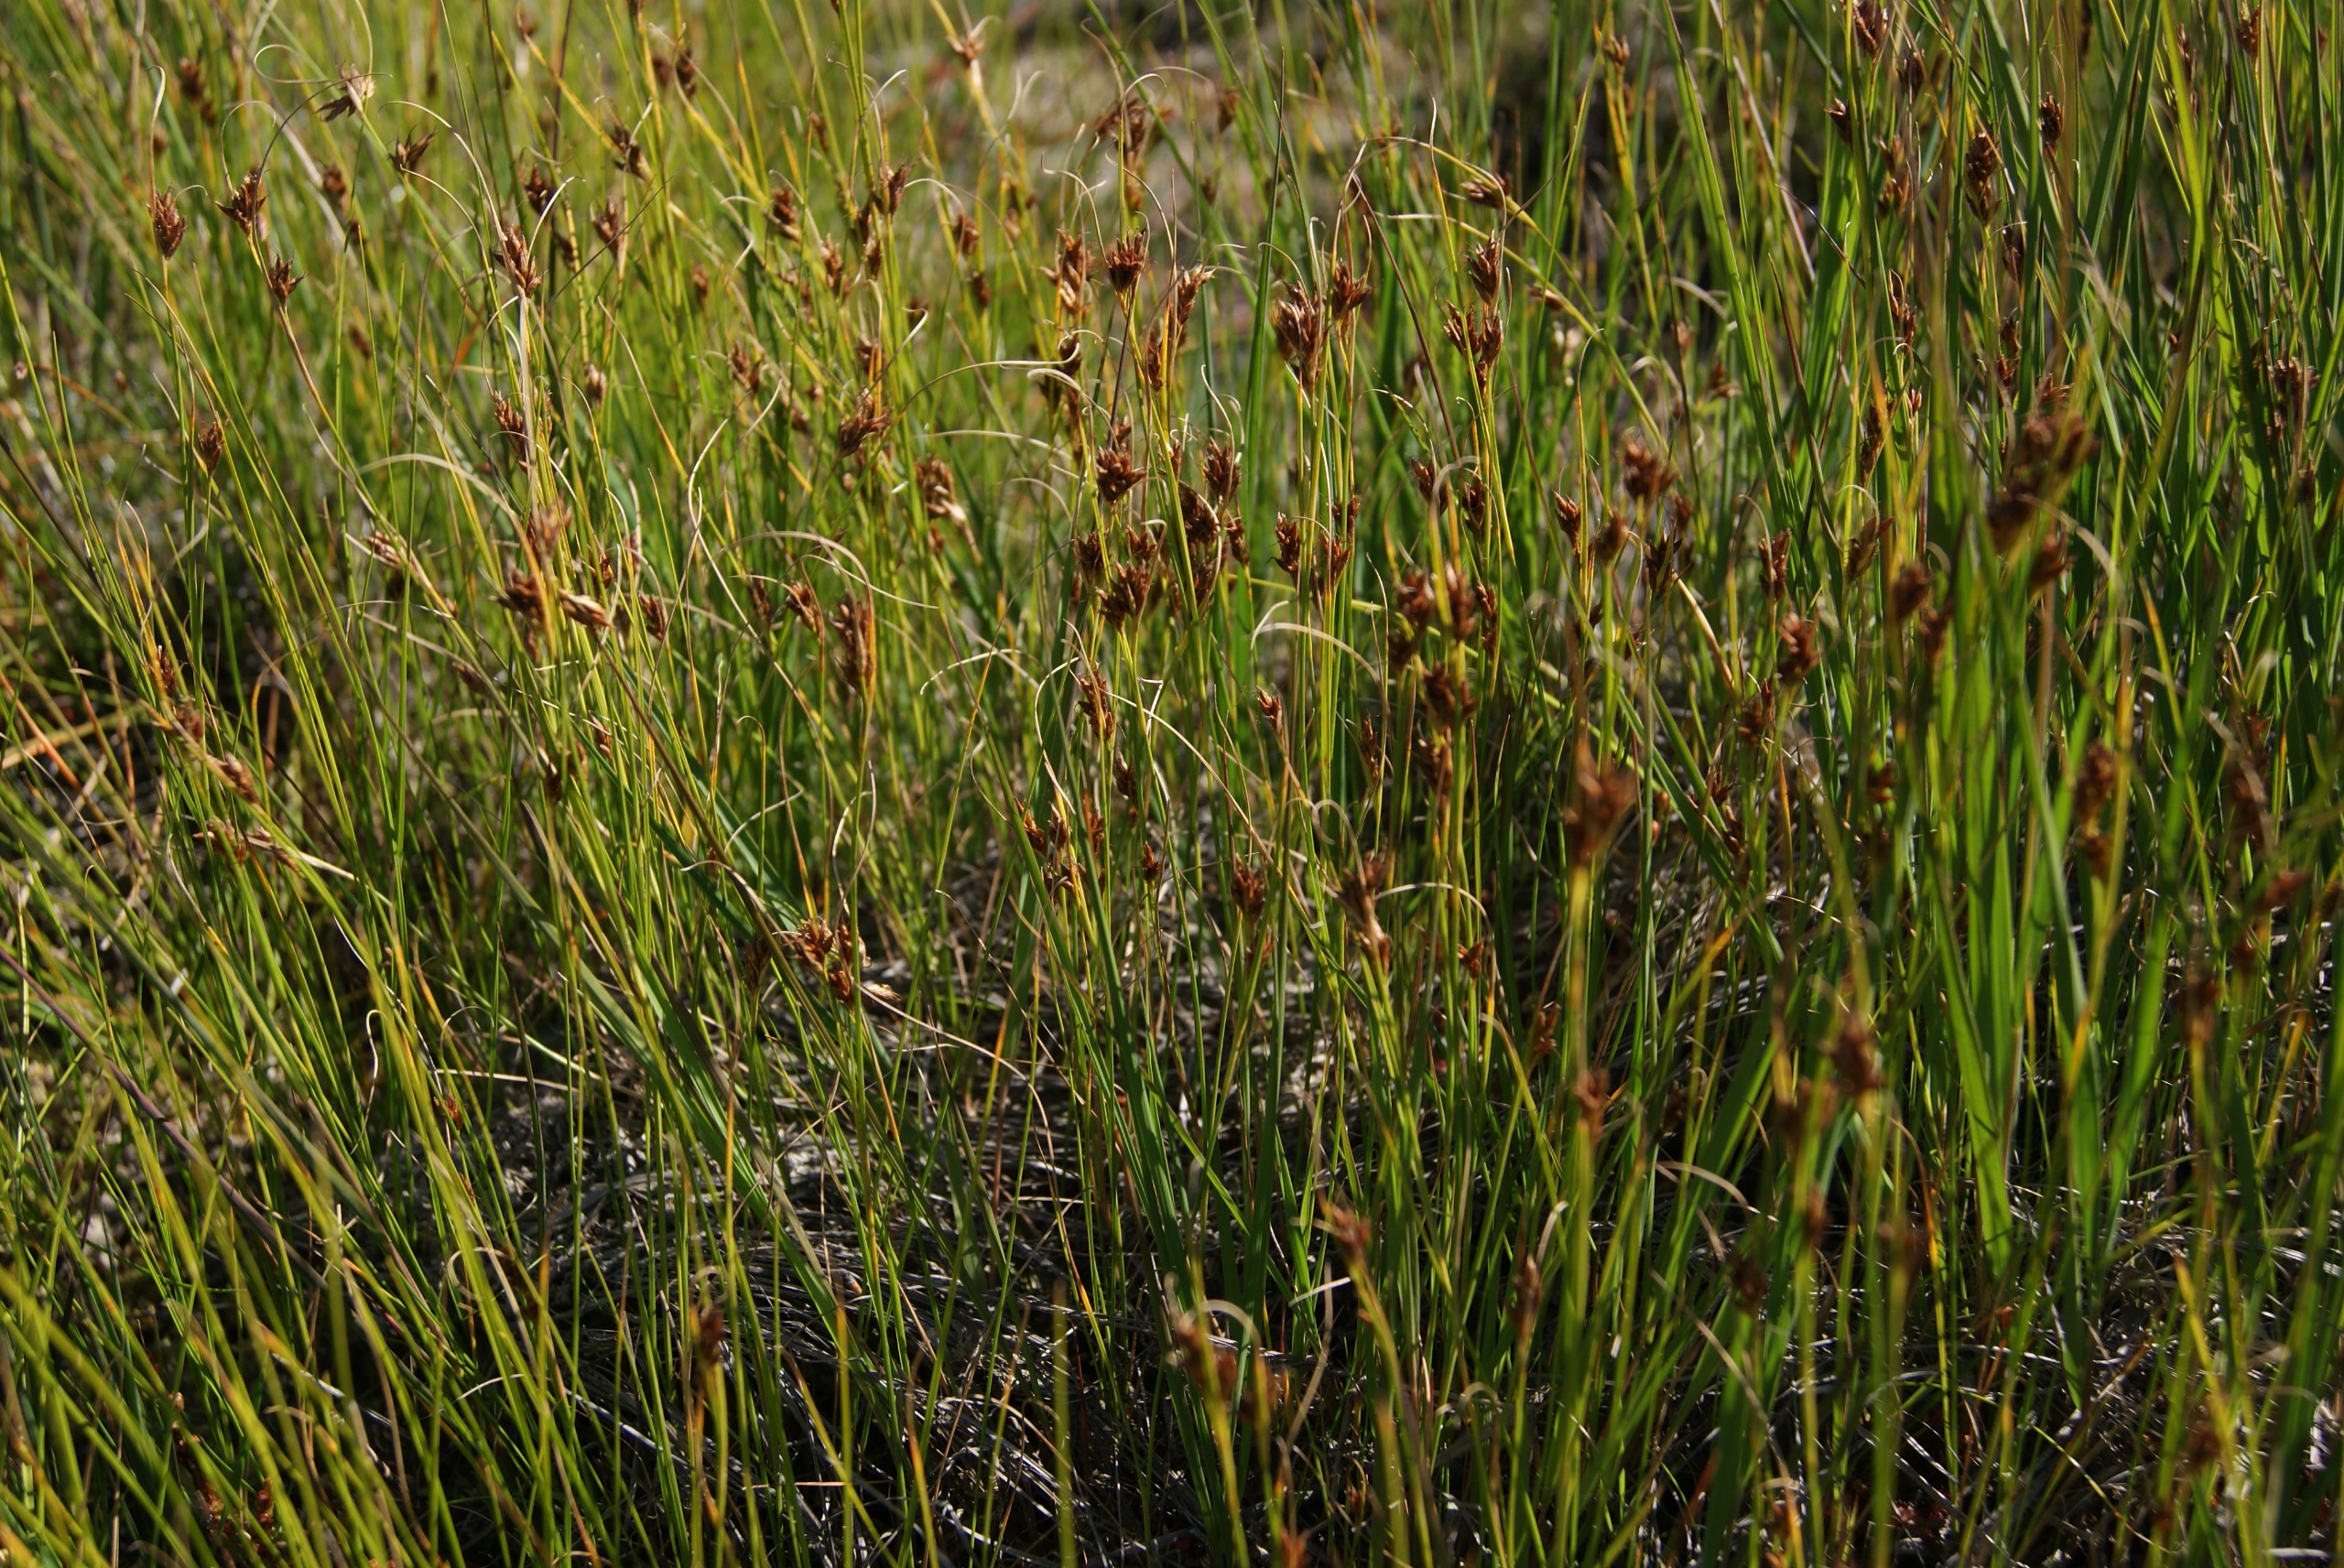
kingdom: Plantae
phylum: Tracheophyta
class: Liliopsida
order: Poales
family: Cyperaceae
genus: Rhynchospora
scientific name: Rhynchospora fusca
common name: Brun næbfrø
